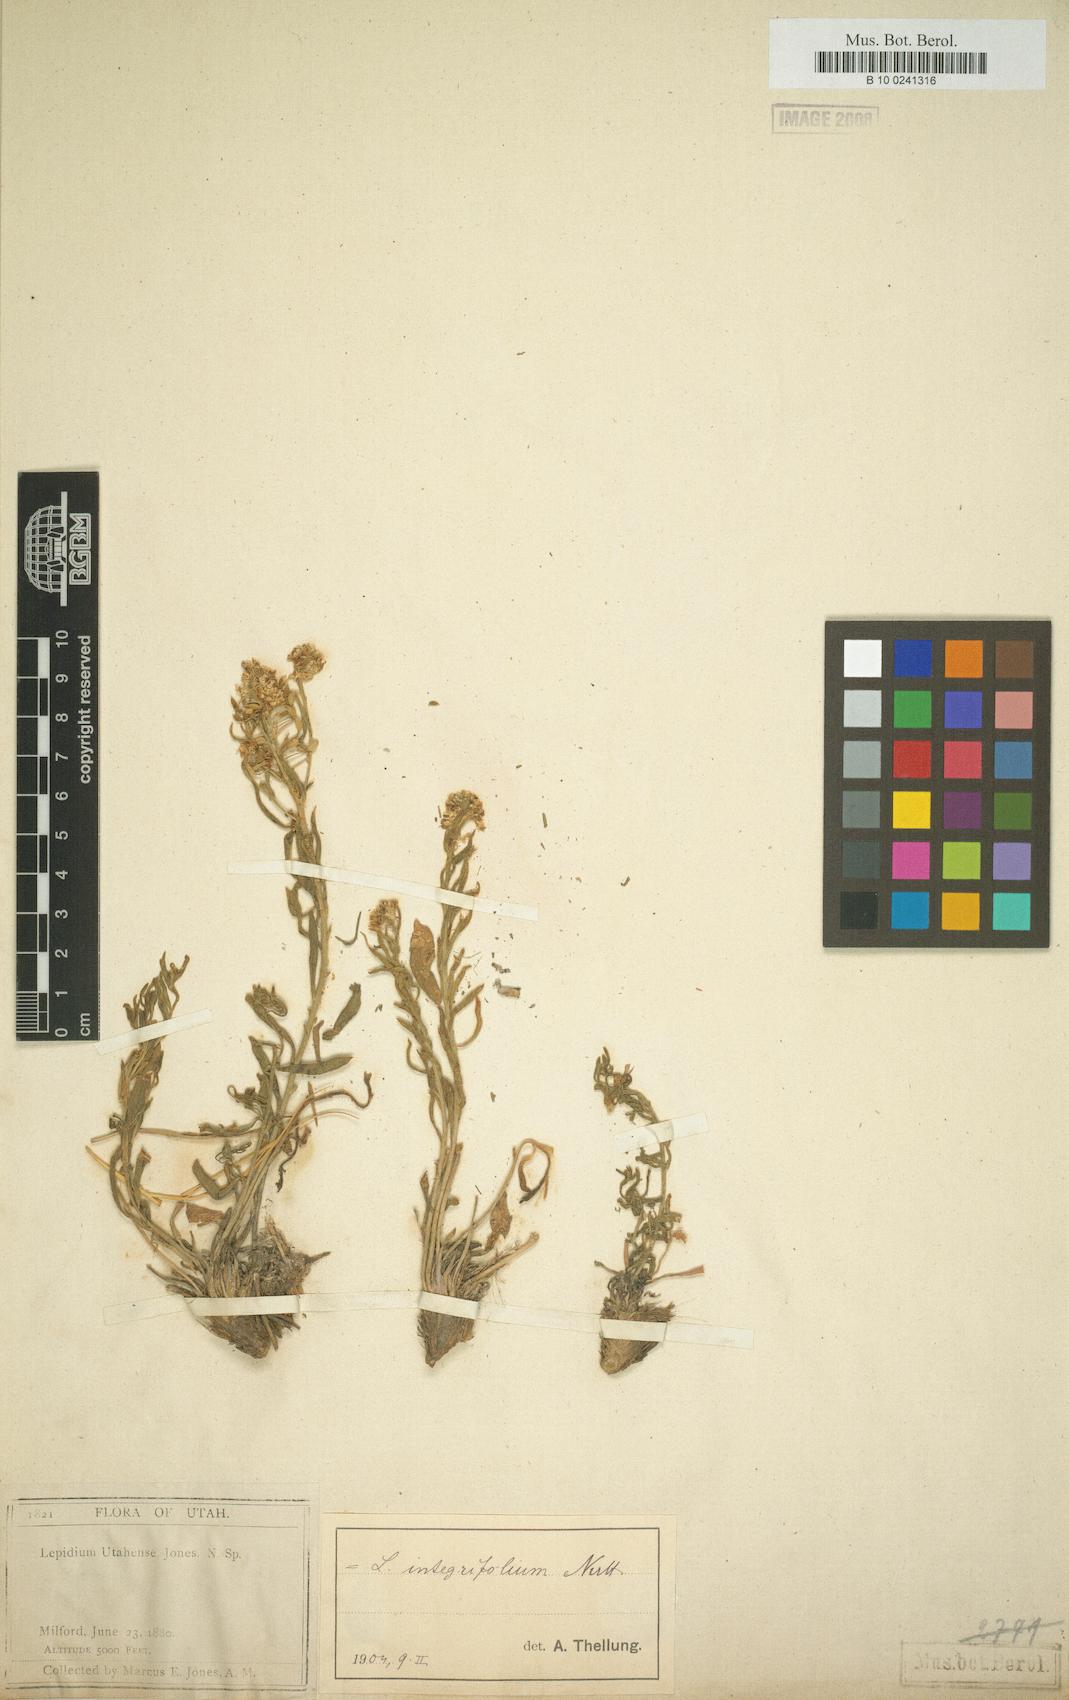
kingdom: Plantae
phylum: Tracheophyta
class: Magnoliopsida
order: Brassicales
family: Brassicaceae
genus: Lepidium
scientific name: Lepidium integrifolium
